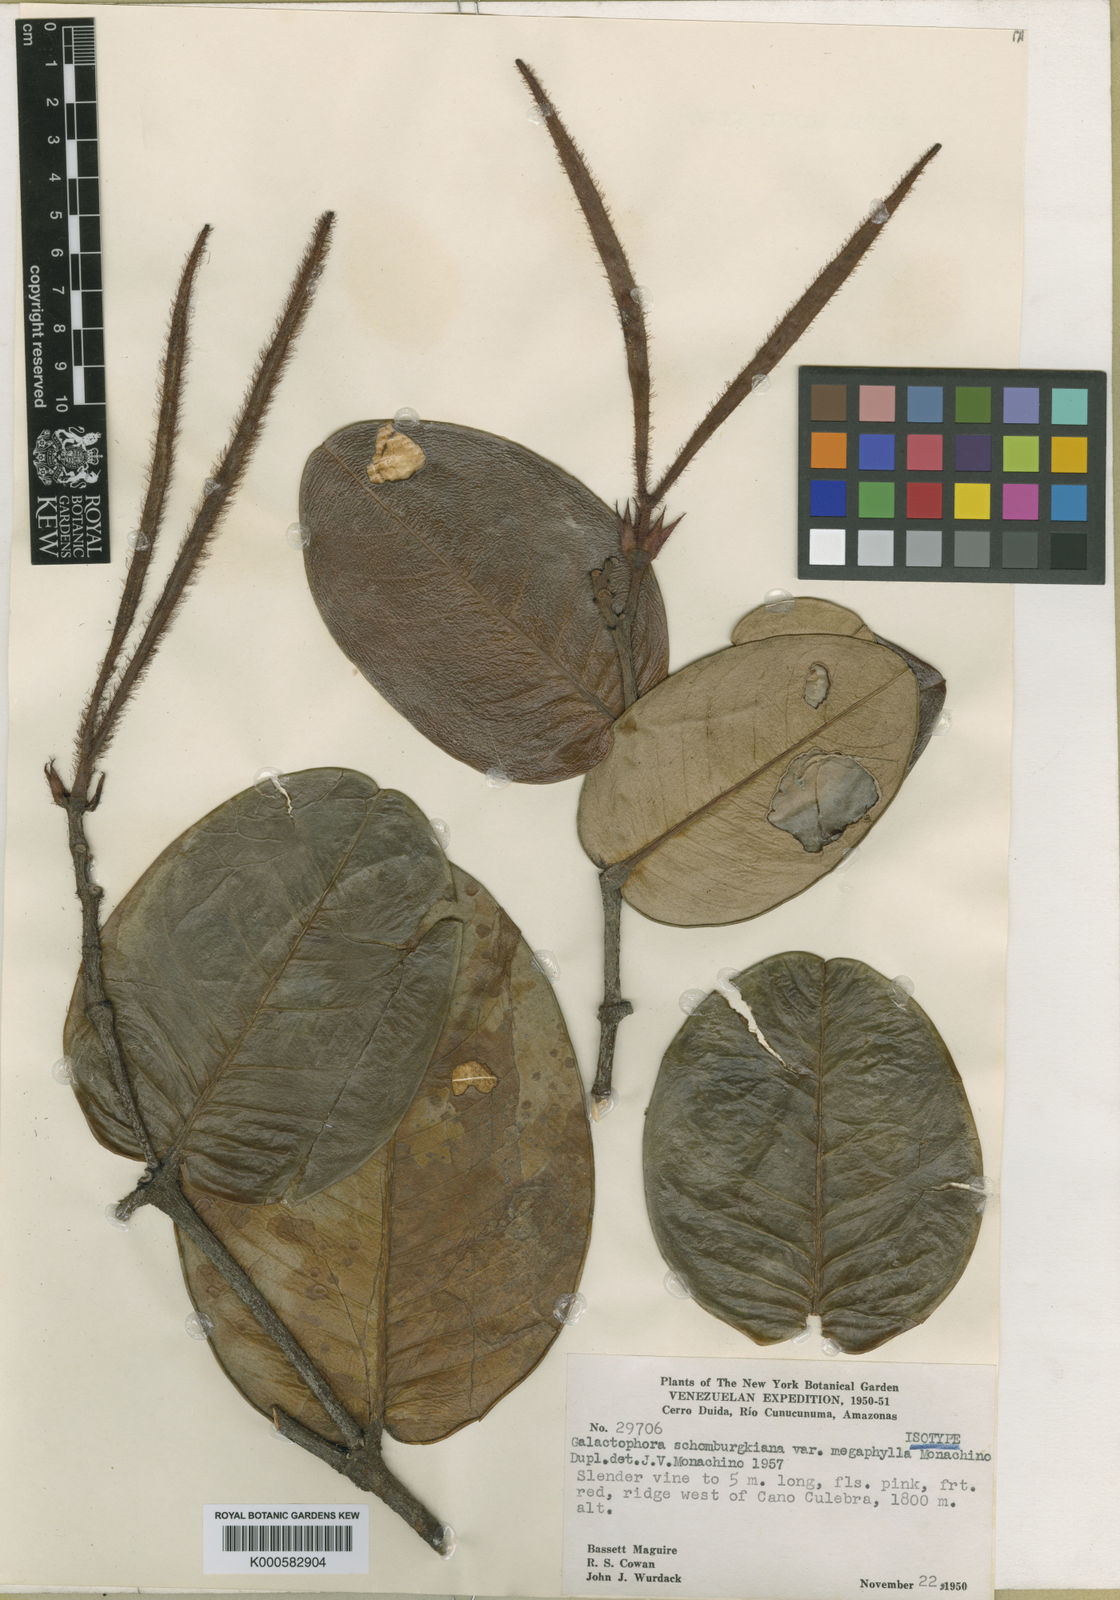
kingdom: Plantae
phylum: Tracheophyta
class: Magnoliopsida
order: Gentianales
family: Apocynaceae
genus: Galactophora
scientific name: Galactophora schomburgkiana
